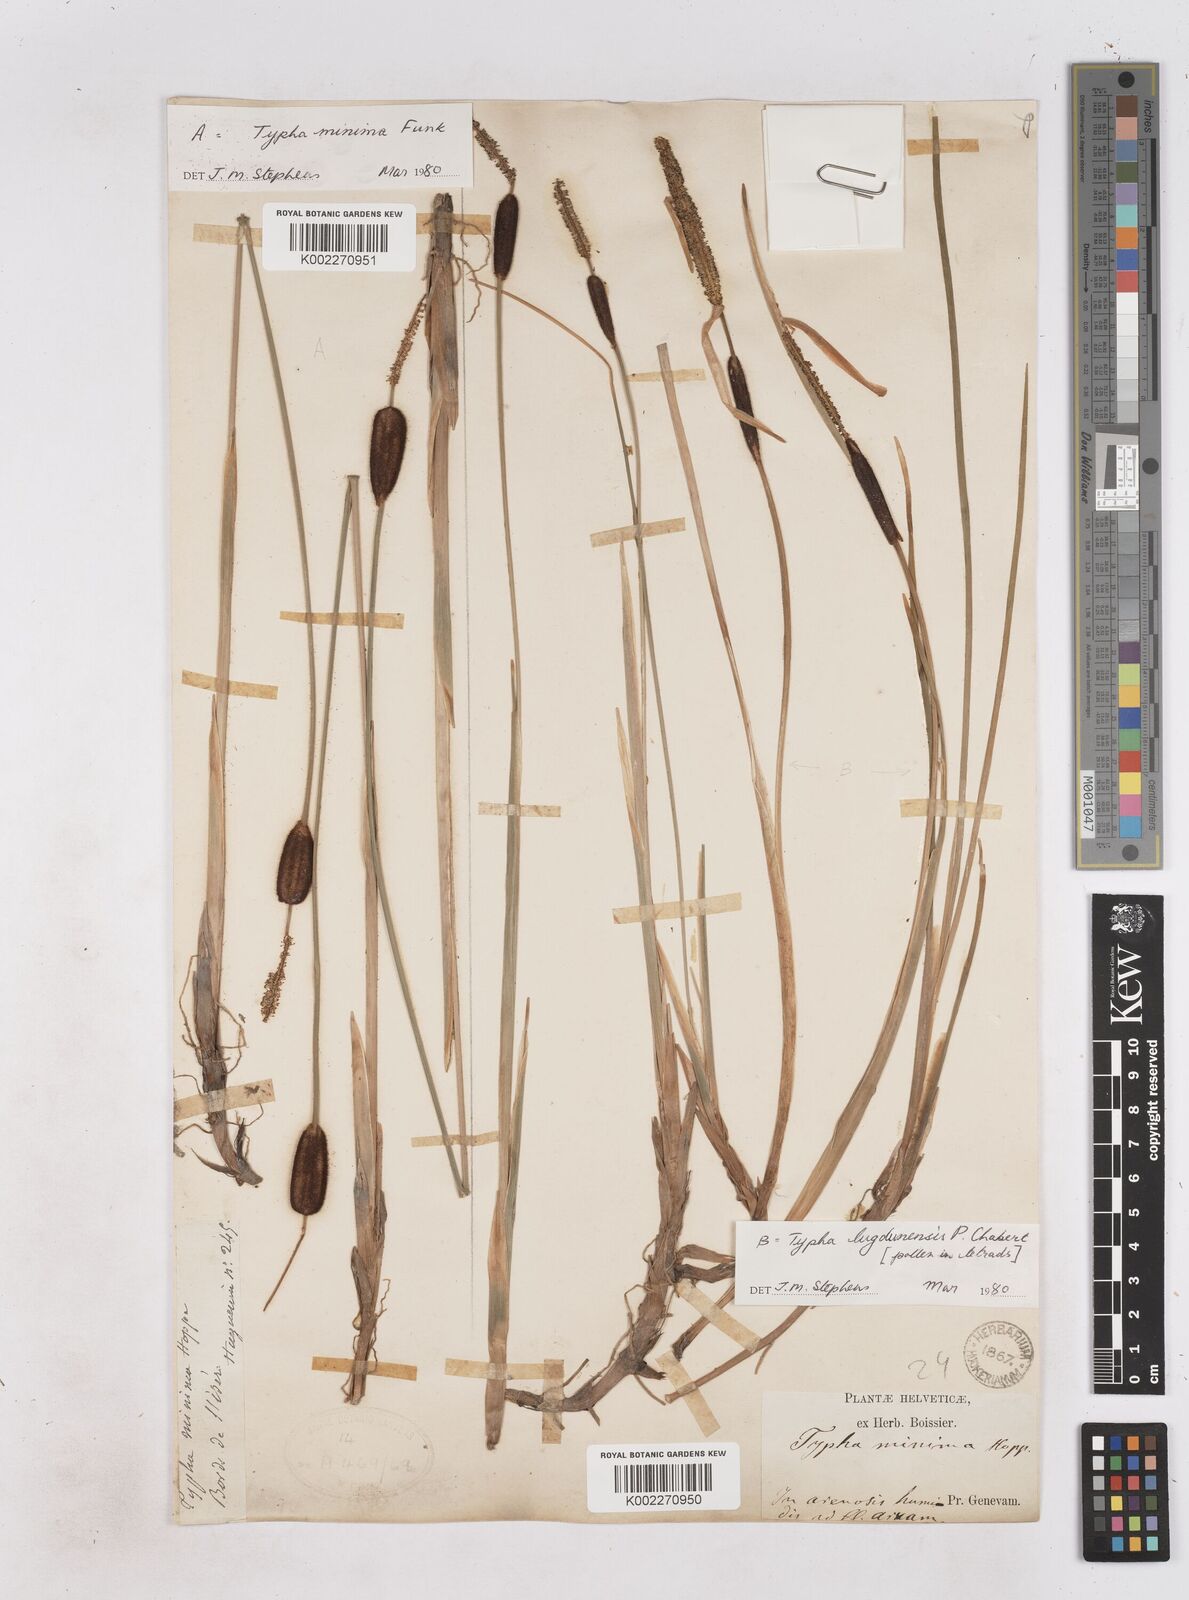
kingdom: Plantae
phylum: Tracheophyta
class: Liliopsida
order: Poales
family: Typhaceae
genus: Typha
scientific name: Typha lugdunensis
